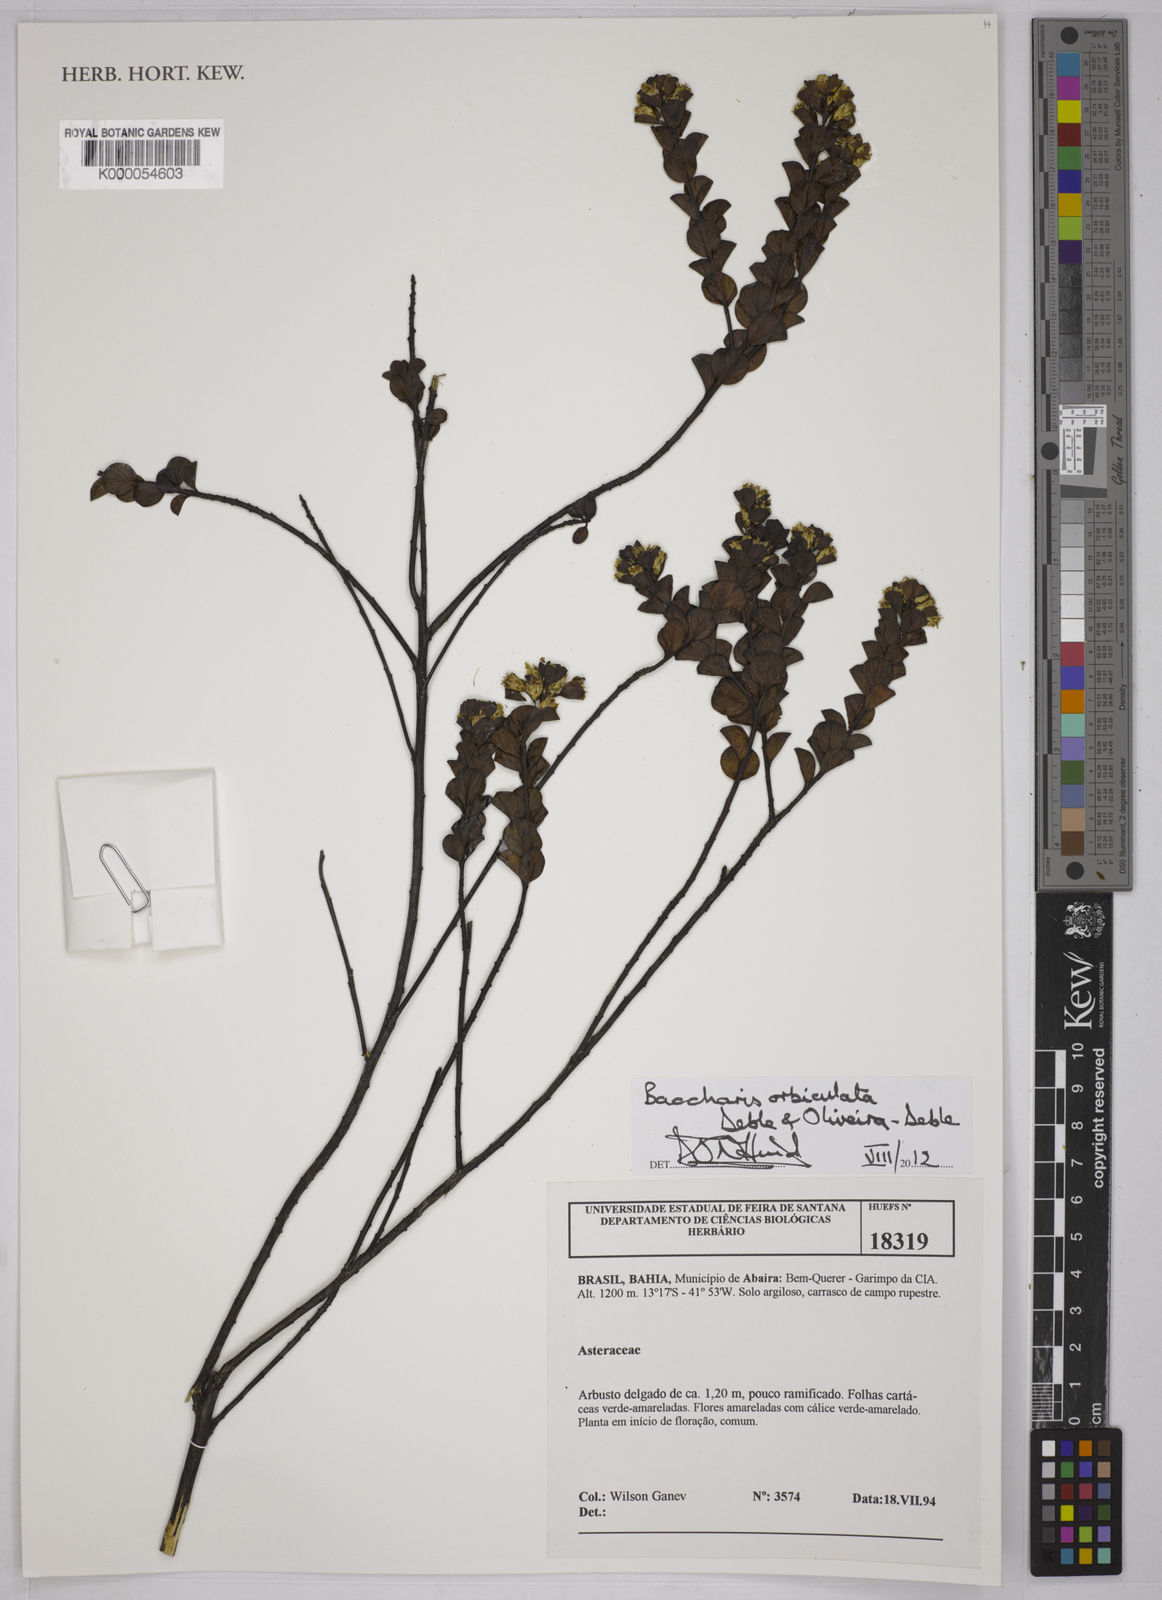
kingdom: Plantae
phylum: Tracheophyta
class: Magnoliopsida
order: Asterales
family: Asteraceae
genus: Baccharis
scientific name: Baccharis
